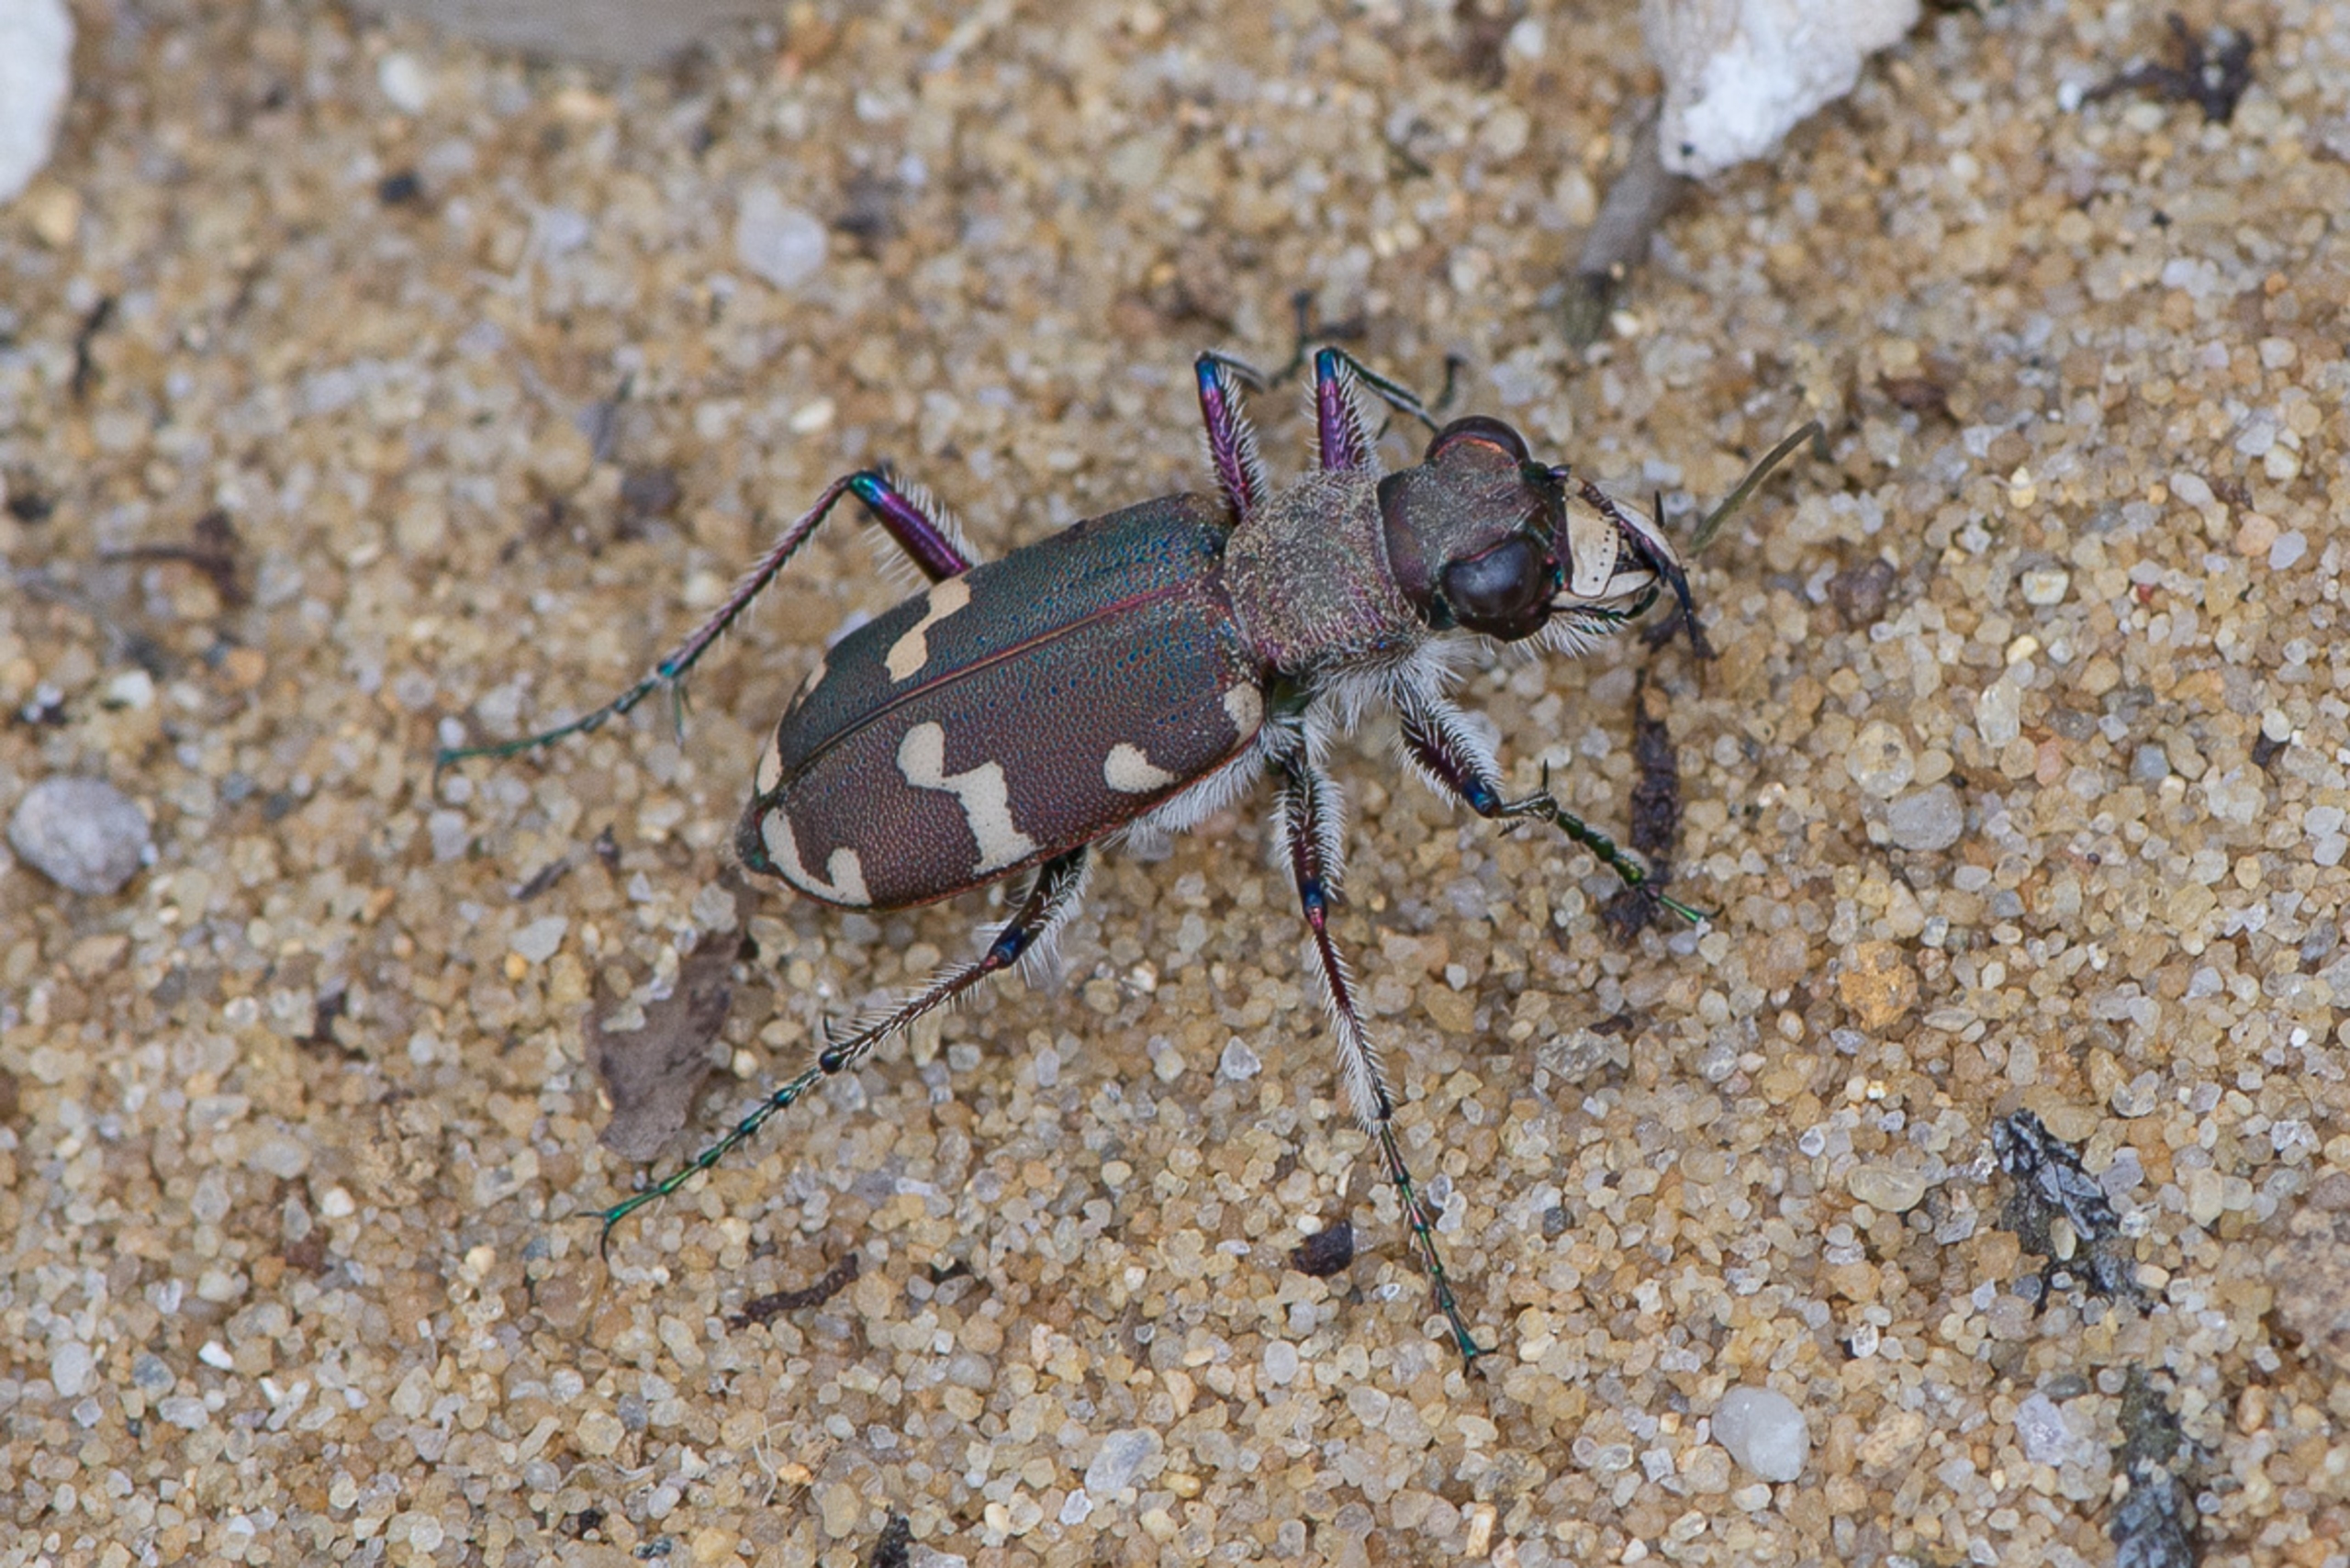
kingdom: Animalia
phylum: Arthropoda
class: Insecta
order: Coleoptera
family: Carabidae
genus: Cicindela
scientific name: Cicindela hybrida
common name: Brun sandspringer
